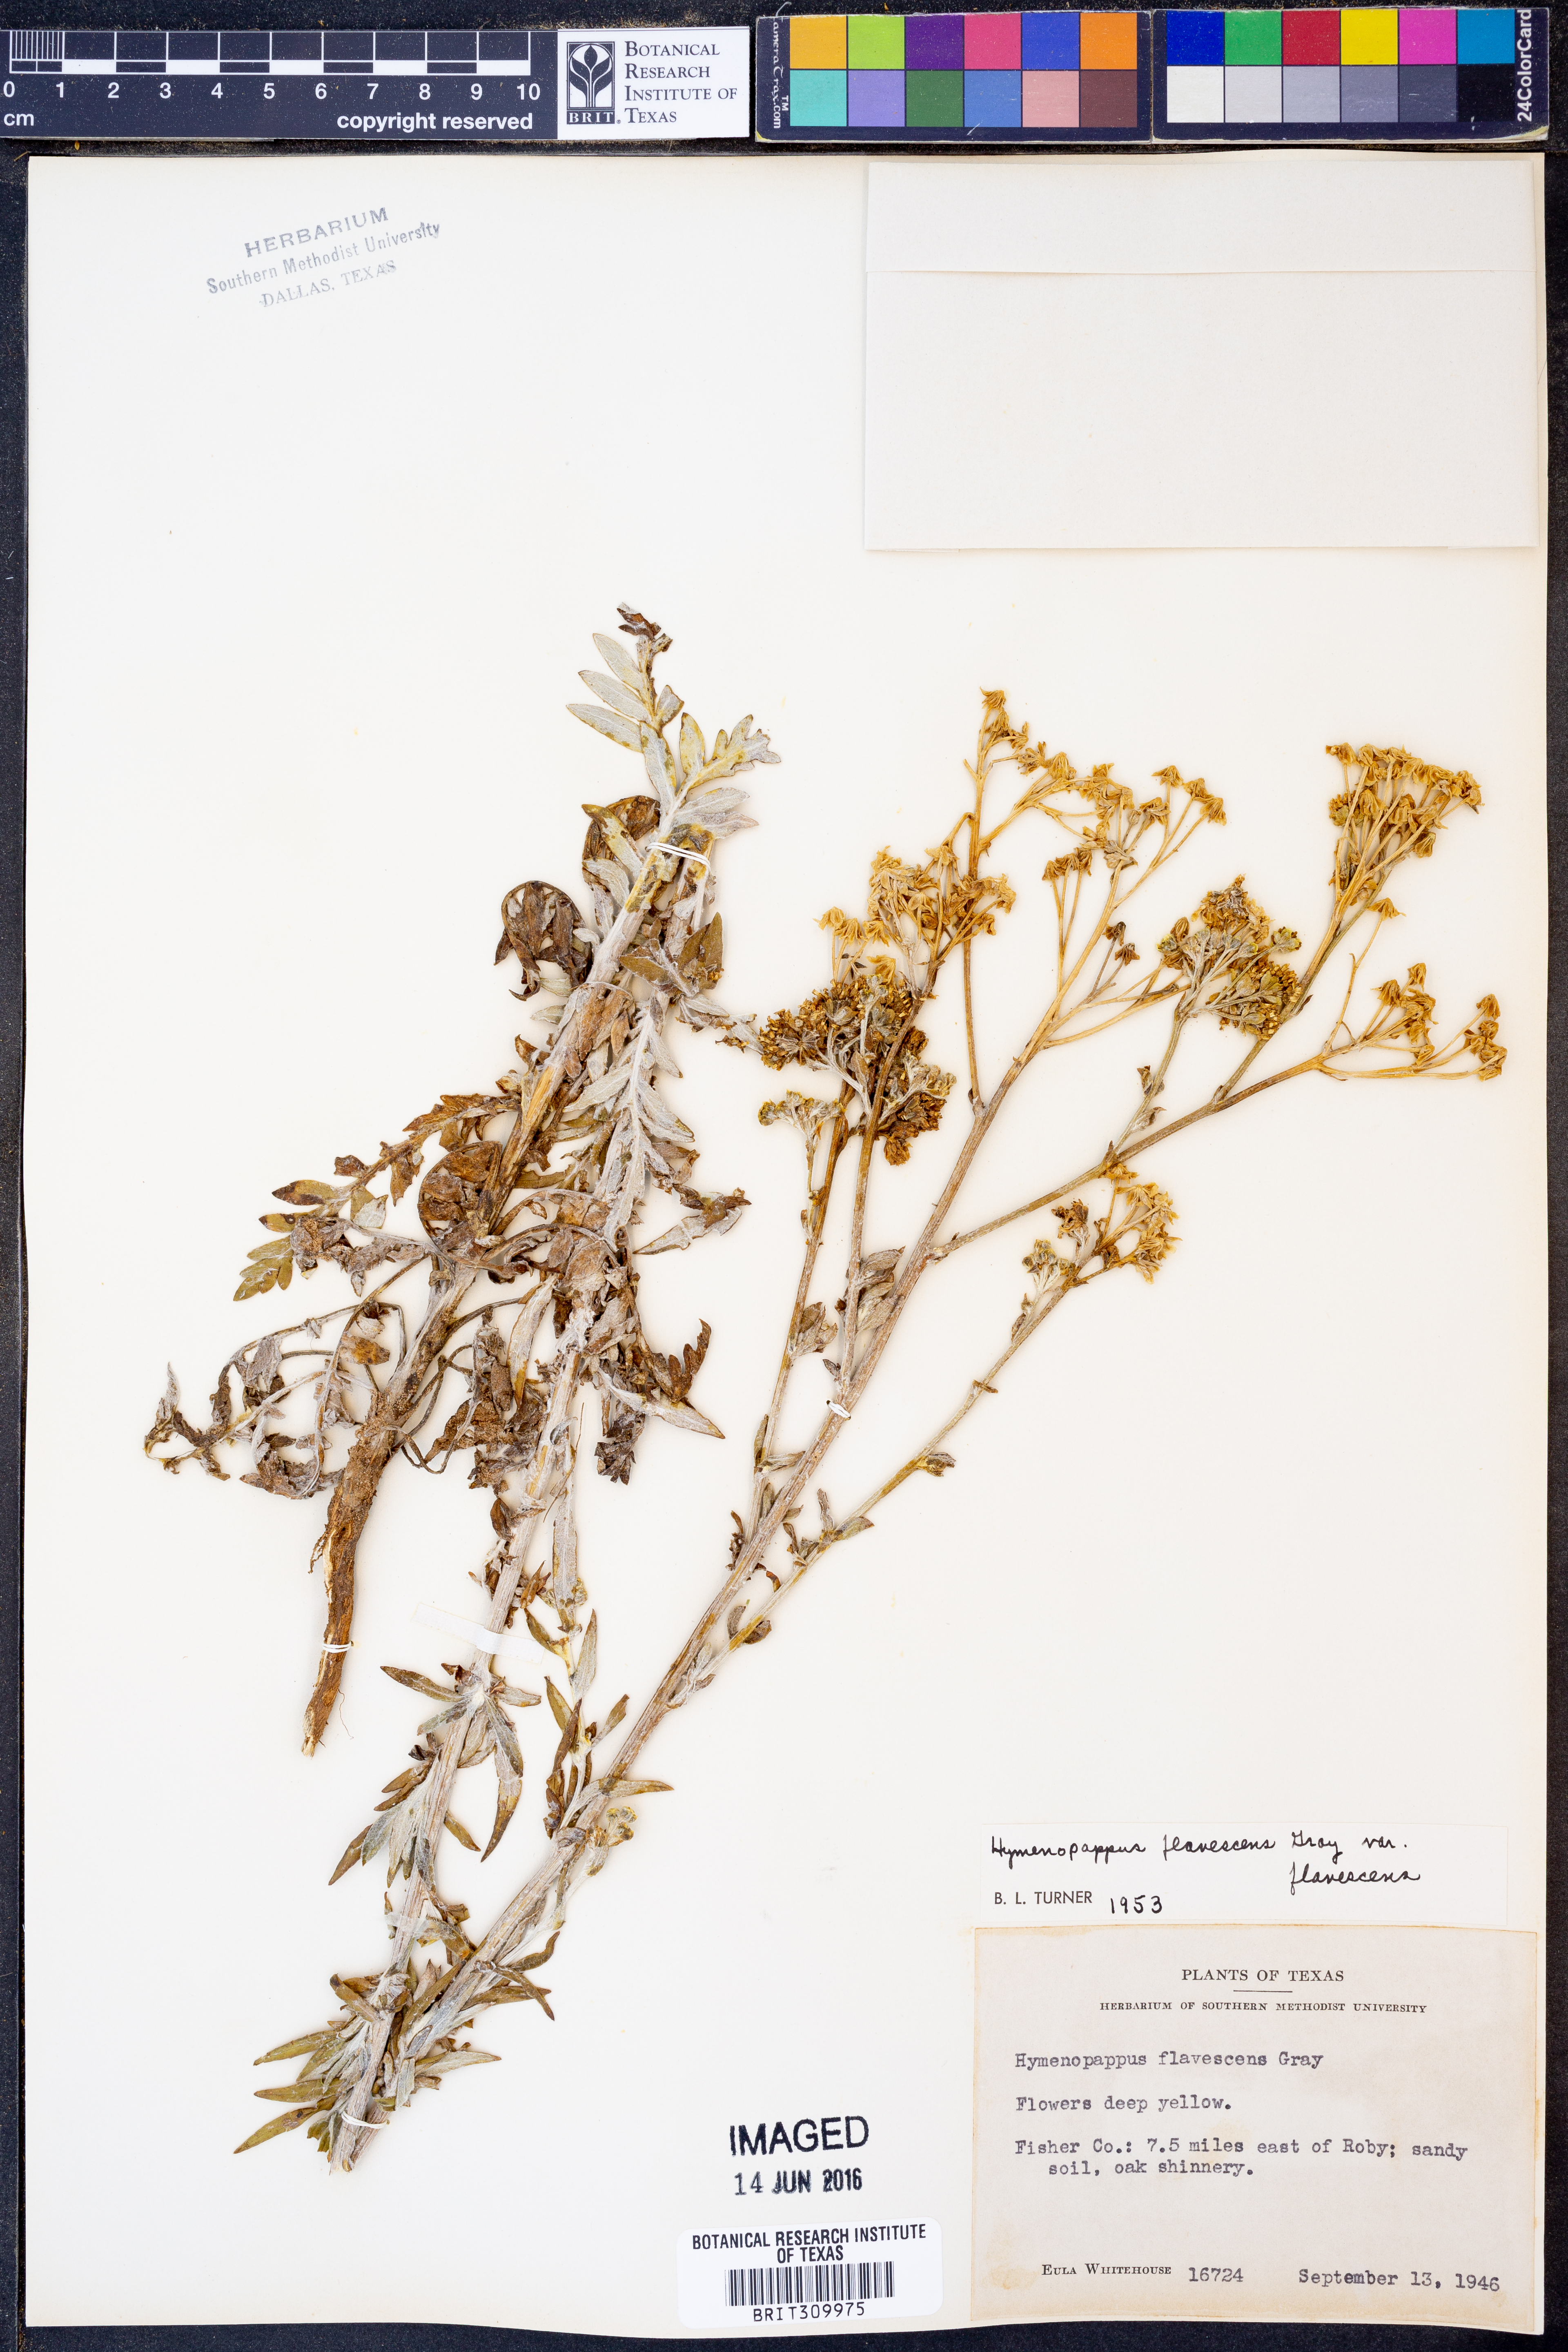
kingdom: Plantae
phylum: Tracheophyta
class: Magnoliopsida
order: Asterales
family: Asteraceae
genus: Hymenopappus
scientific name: Hymenopappus flavescens
